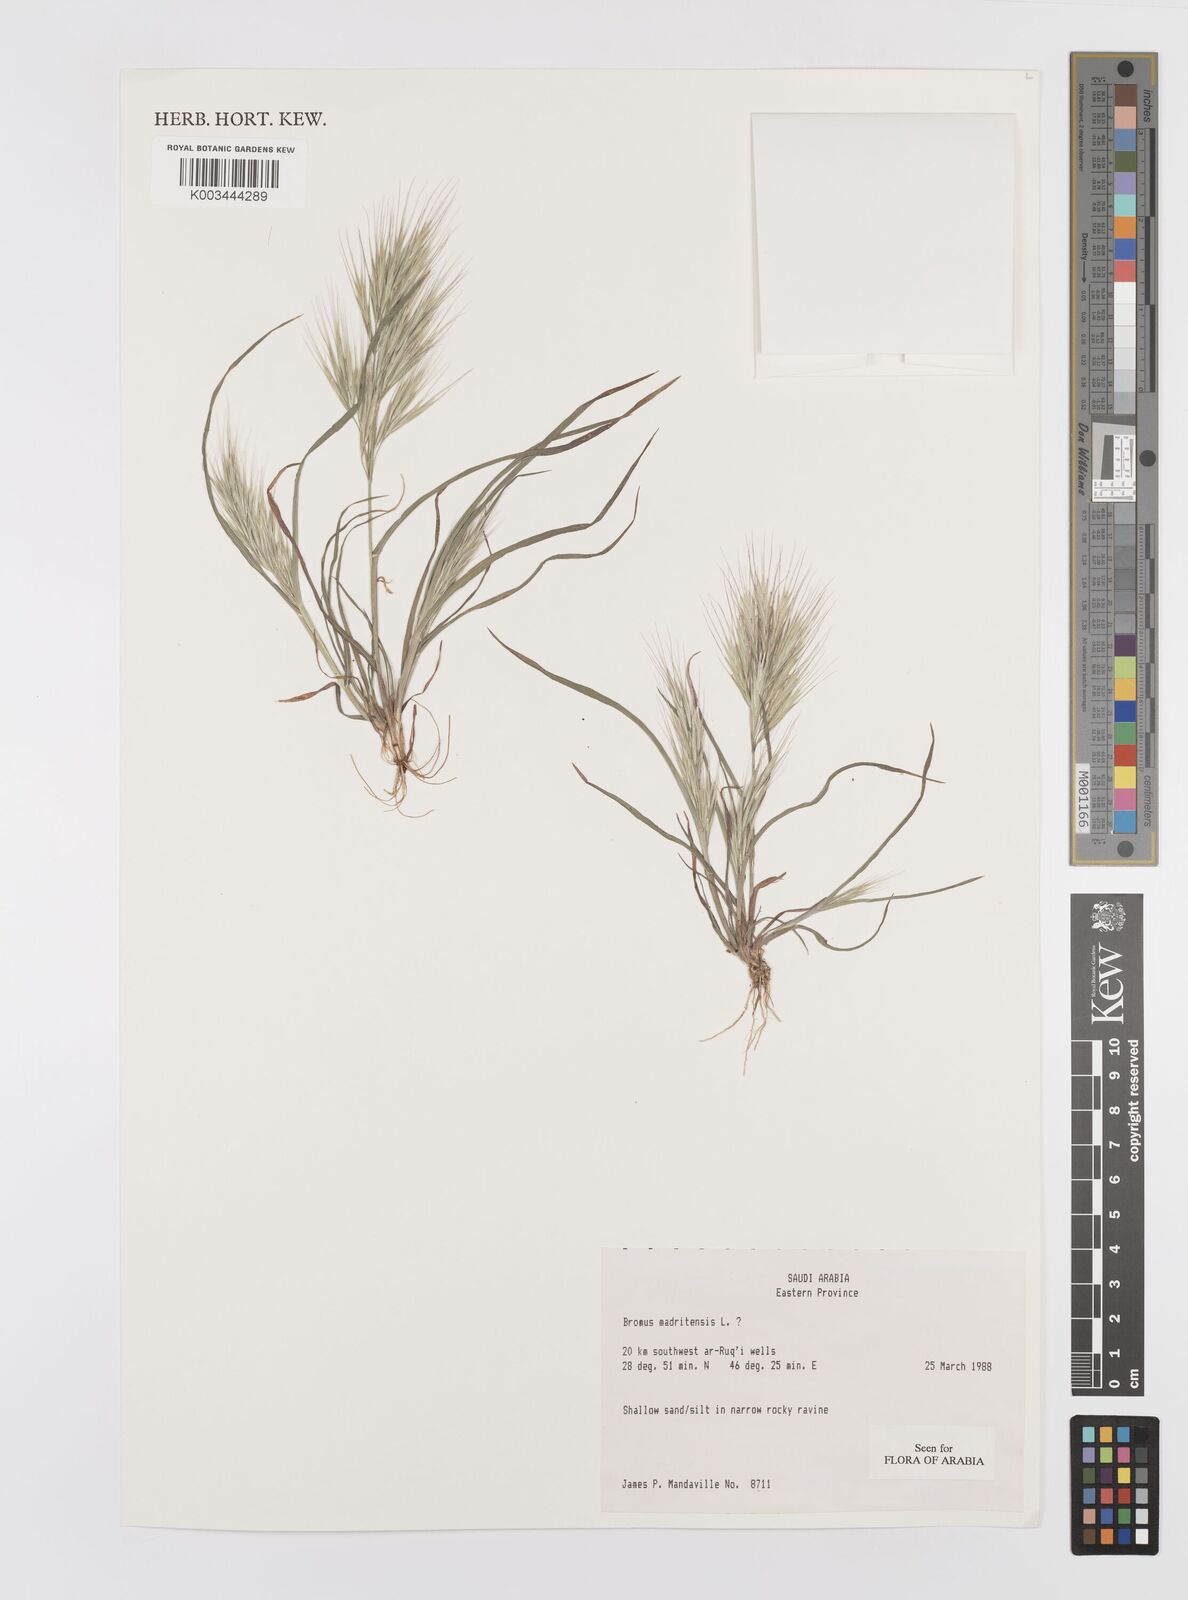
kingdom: Plantae
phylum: Tracheophyta
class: Liliopsida
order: Poales
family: Poaceae
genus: Bromus
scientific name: Bromus madritensis
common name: Compact brome
